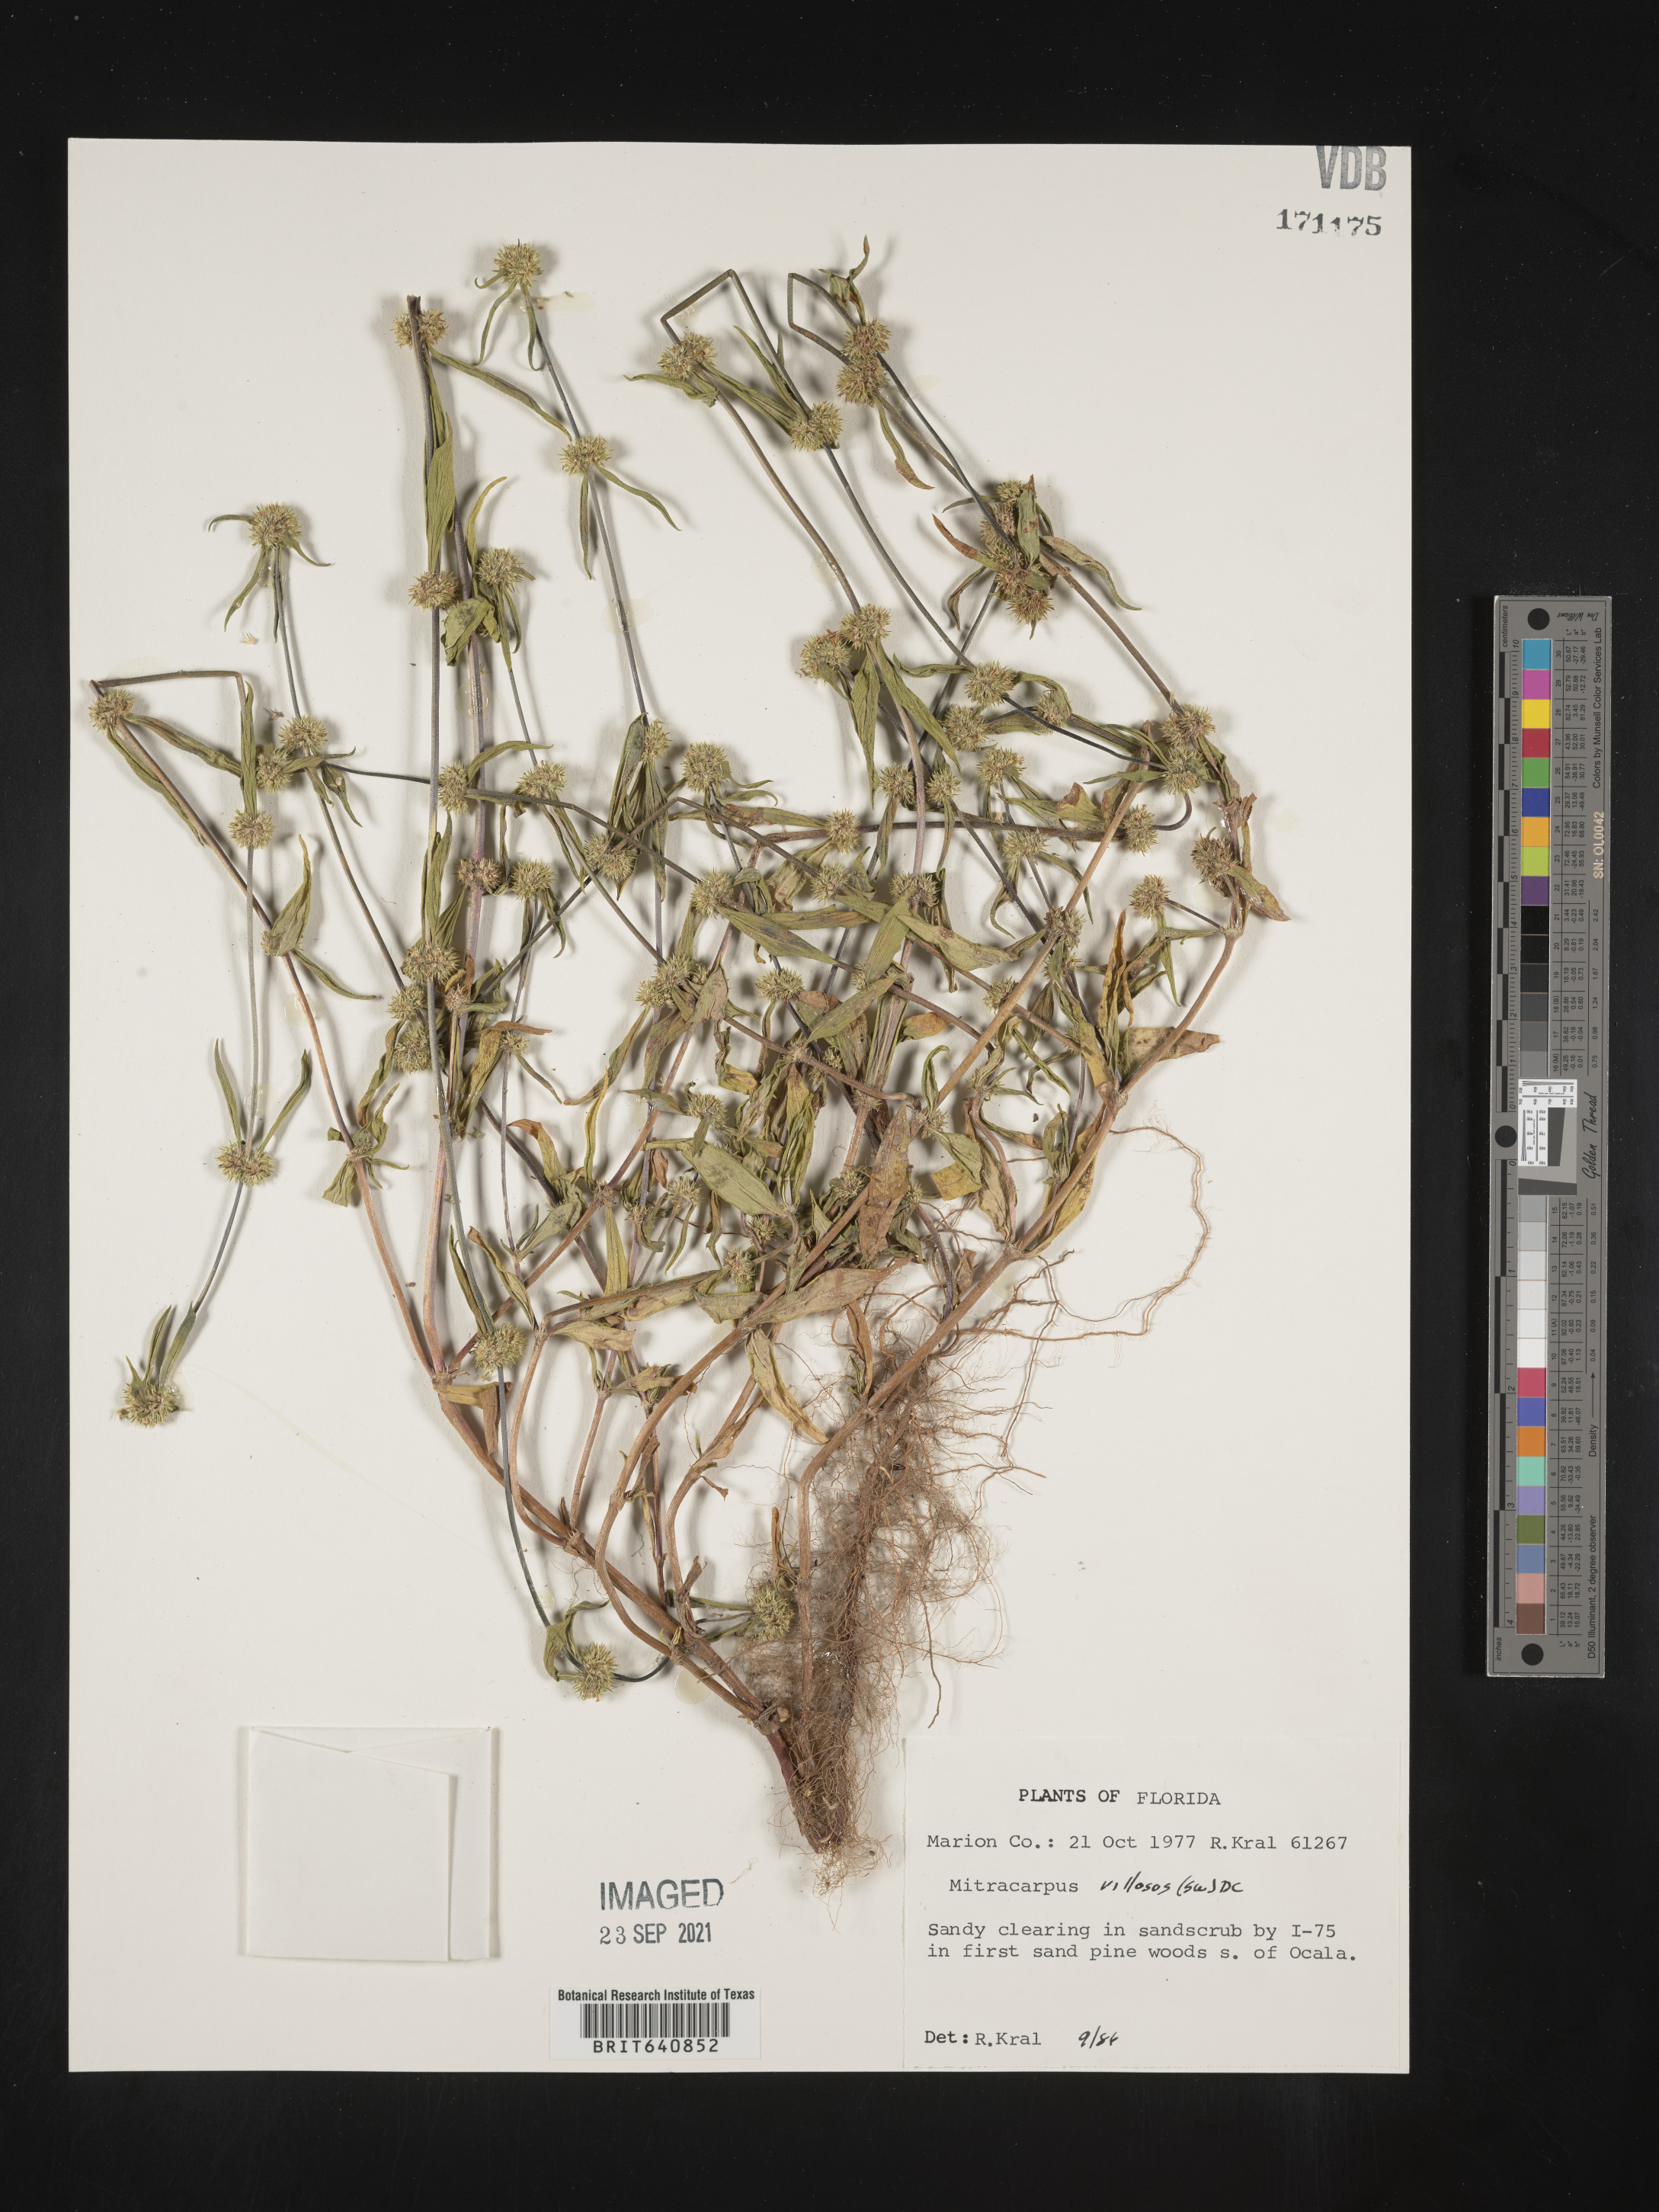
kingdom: Plantae
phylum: Tracheophyta
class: Magnoliopsida
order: Gentianales
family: Rubiaceae
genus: Mitracarpus
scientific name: Mitracarpus hirtus
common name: Tropical girdlepod
